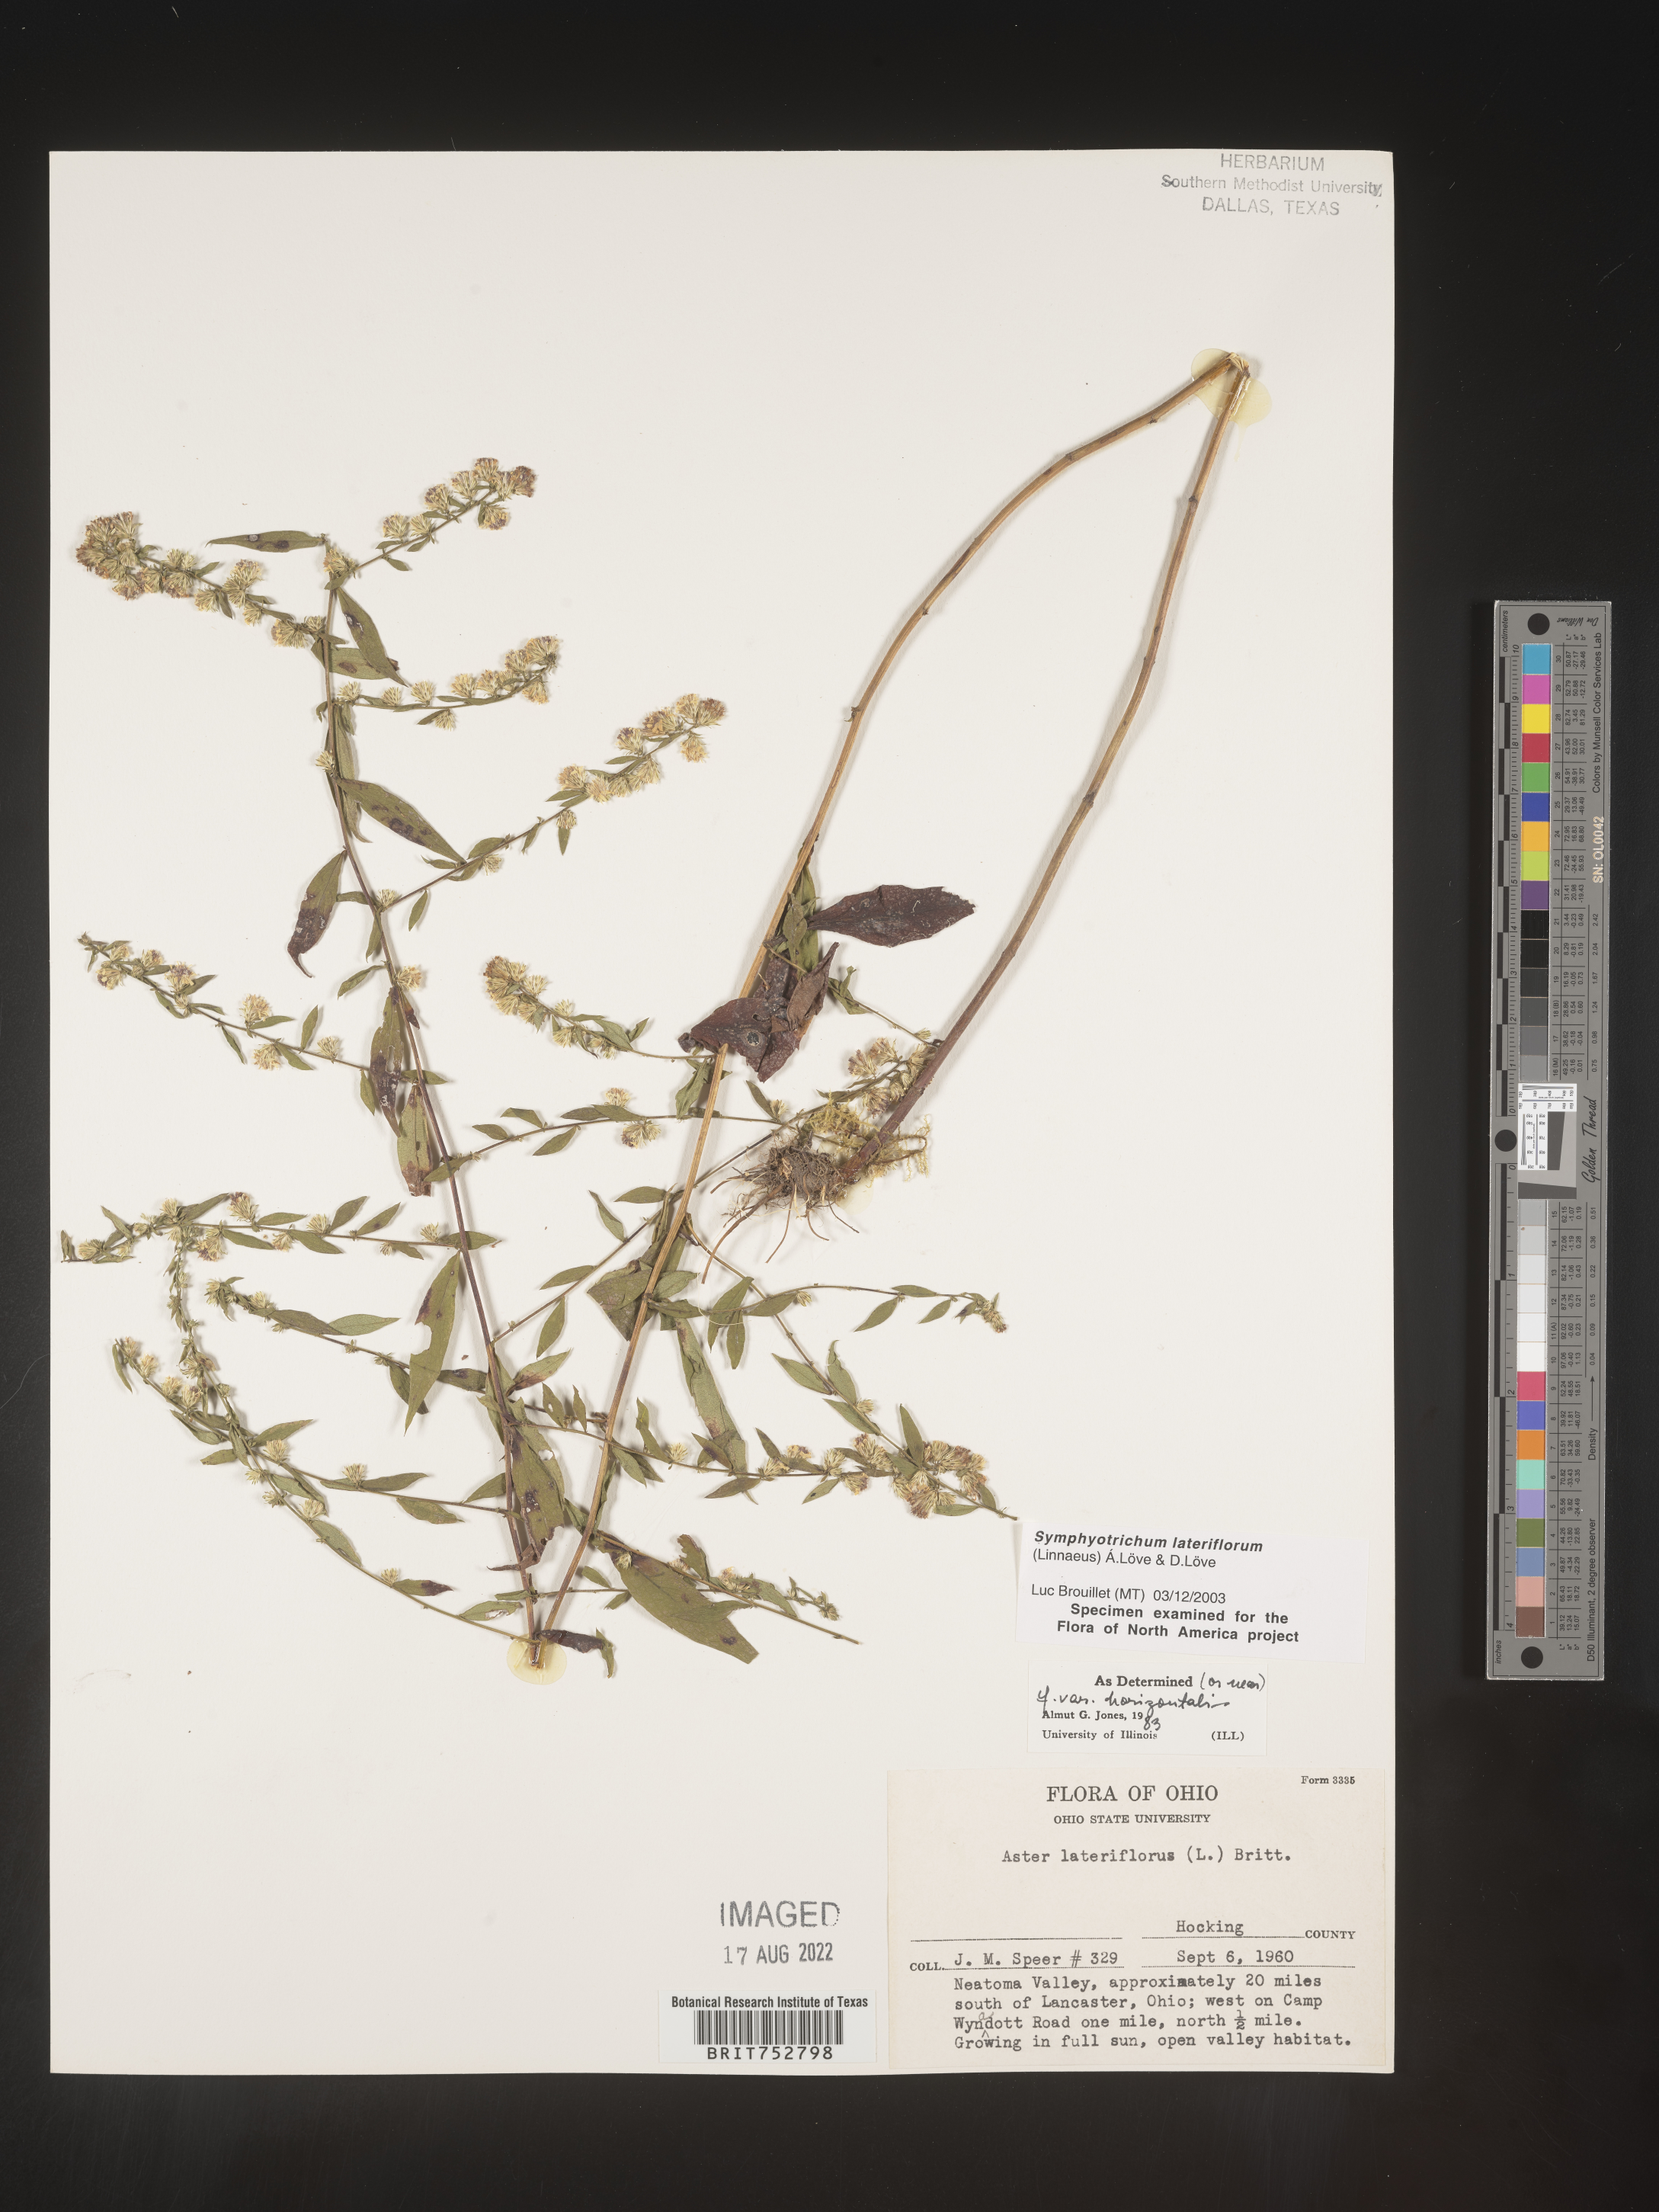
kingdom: Plantae
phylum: Tracheophyta
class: Magnoliopsida
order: Asterales
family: Asteraceae
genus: Symphyotrichum
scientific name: Symphyotrichum lateriflorum
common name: Calico aster
